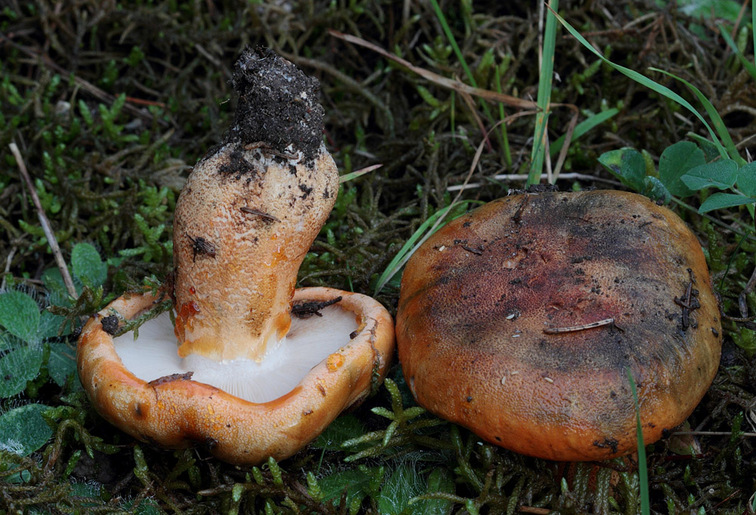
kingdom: Fungi
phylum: Basidiomycota
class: Agaricomycetes
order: Agaricales
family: Tricholomataceae
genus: Tricholoma
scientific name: Tricholoma aurantium
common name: orangegul ridderhat
